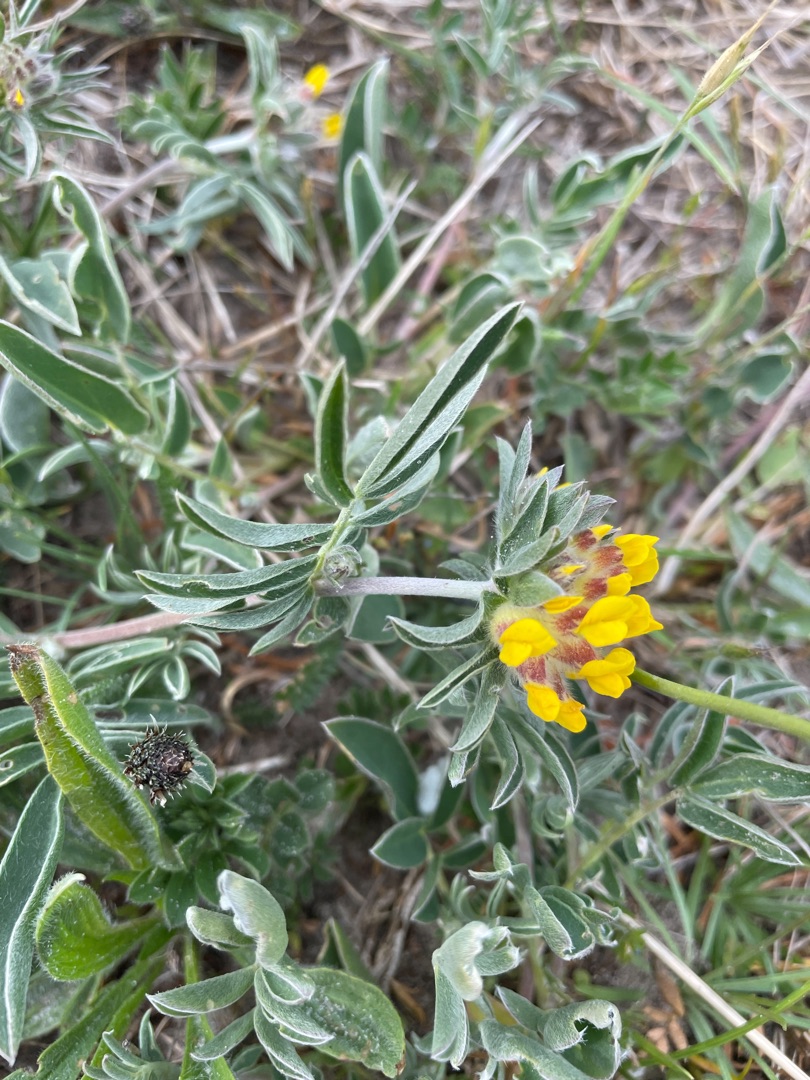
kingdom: Plantae
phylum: Tracheophyta
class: Magnoliopsida
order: Fabales
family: Fabaceae
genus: Anthyllis
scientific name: Anthyllis vulneraria
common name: Rundbælg
